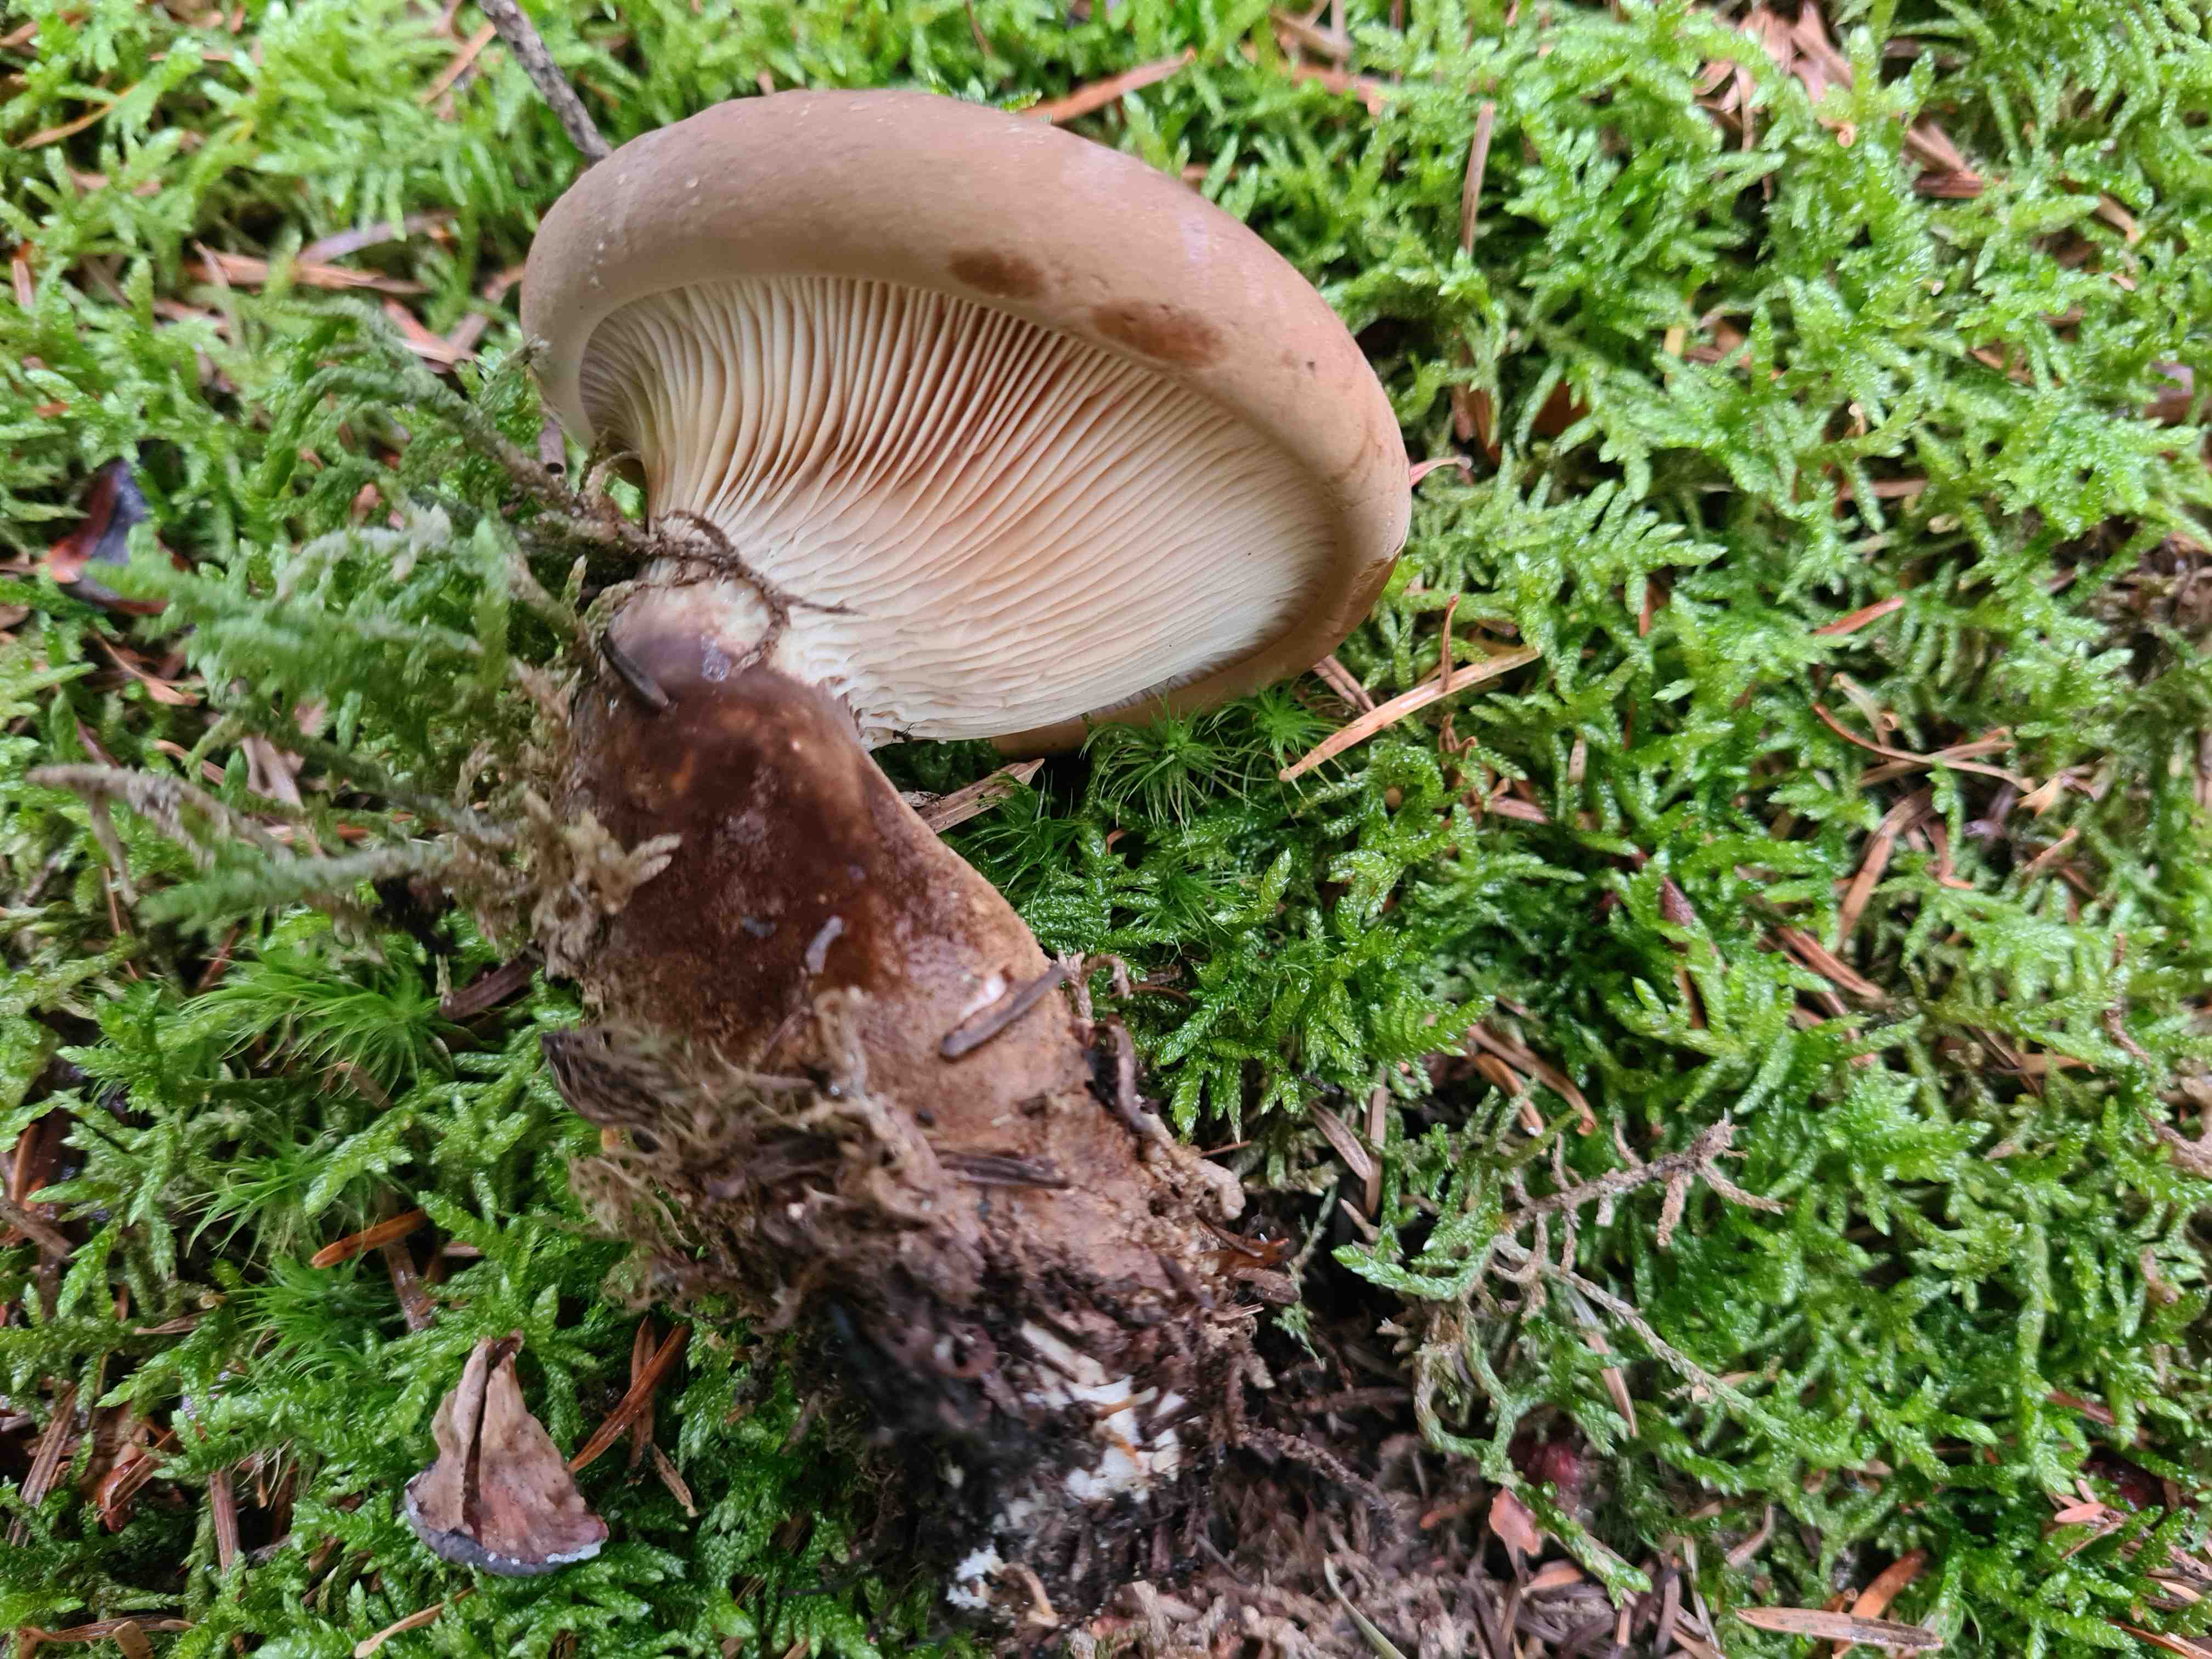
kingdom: Fungi
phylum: Basidiomycota
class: Agaricomycetes
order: Boletales
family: Tapinellaceae
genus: Tapinella
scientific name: Tapinella atrotomentosa
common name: sortfiltet viftesvamp
